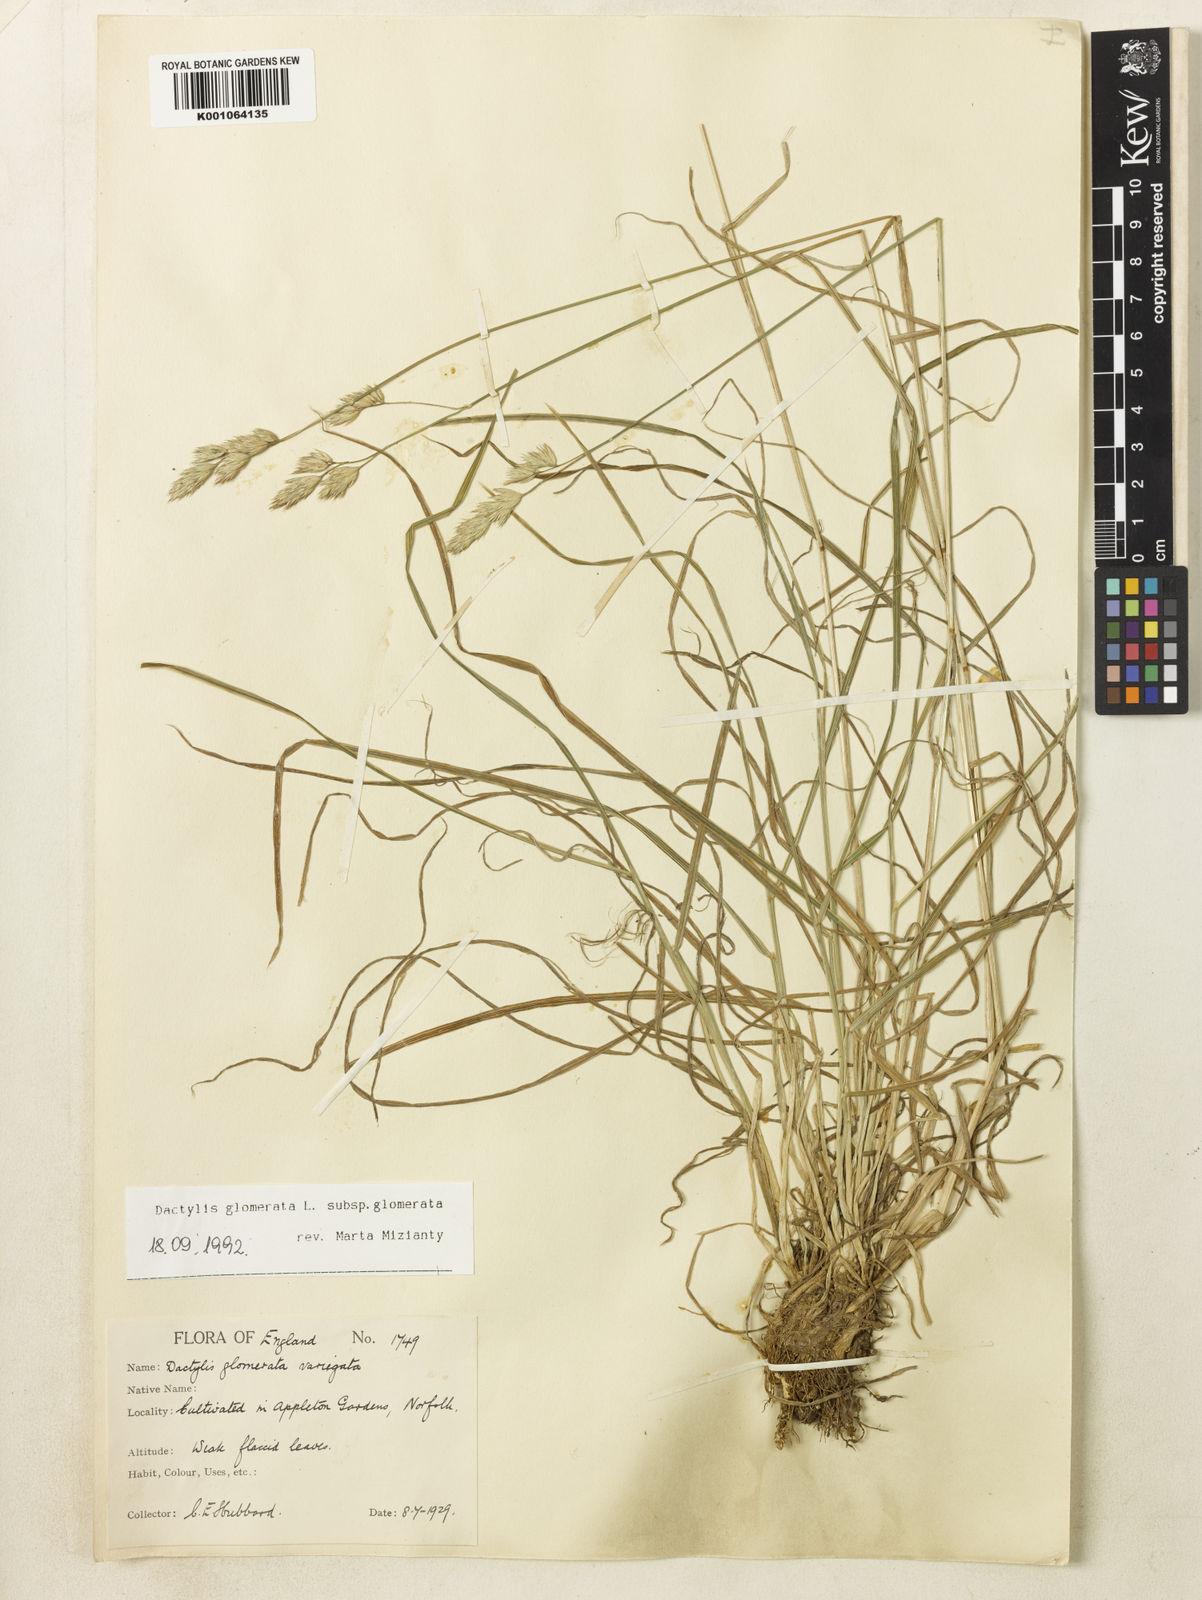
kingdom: Plantae
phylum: Tracheophyta
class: Liliopsida
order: Poales
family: Poaceae
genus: Dactylis
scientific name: Dactylis glomerata
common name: Orchardgrass
